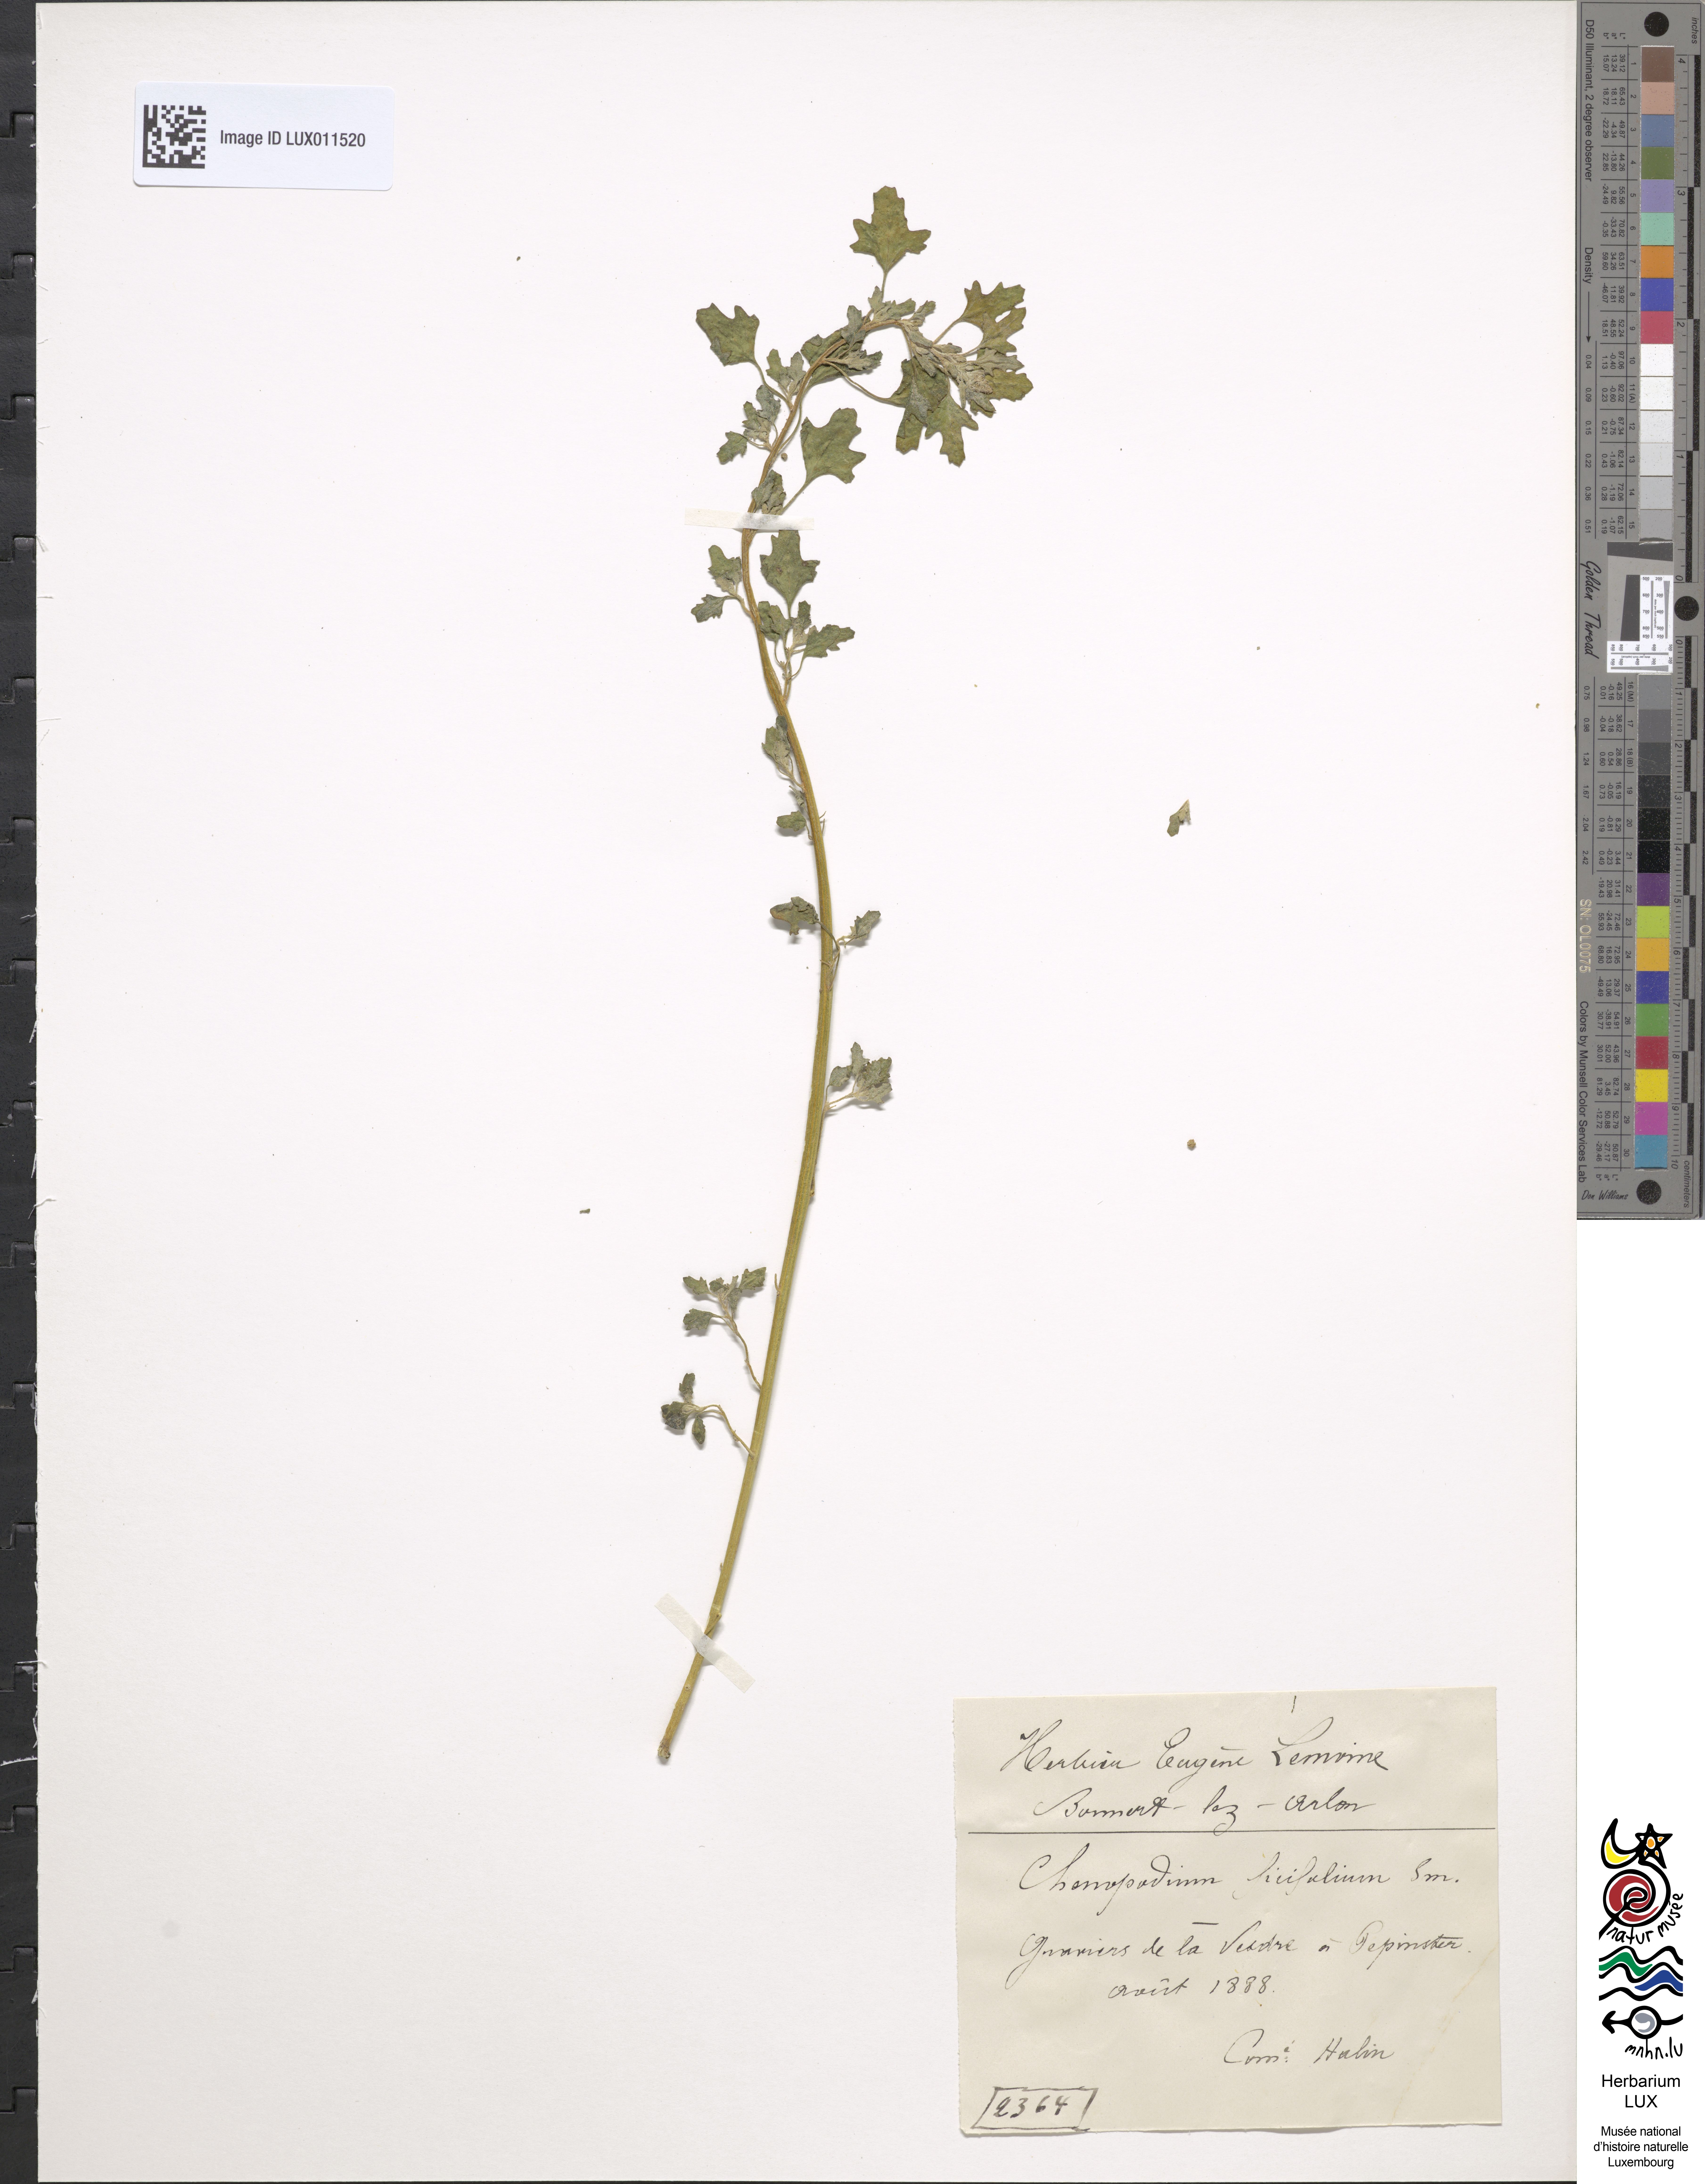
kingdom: Plantae
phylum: Tracheophyta
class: Magnoliopsida
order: Caryophyllales
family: Amaranthaceae
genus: Chenopodium
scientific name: Chenopodium ficifolium
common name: Fig-leaved goosefoot
